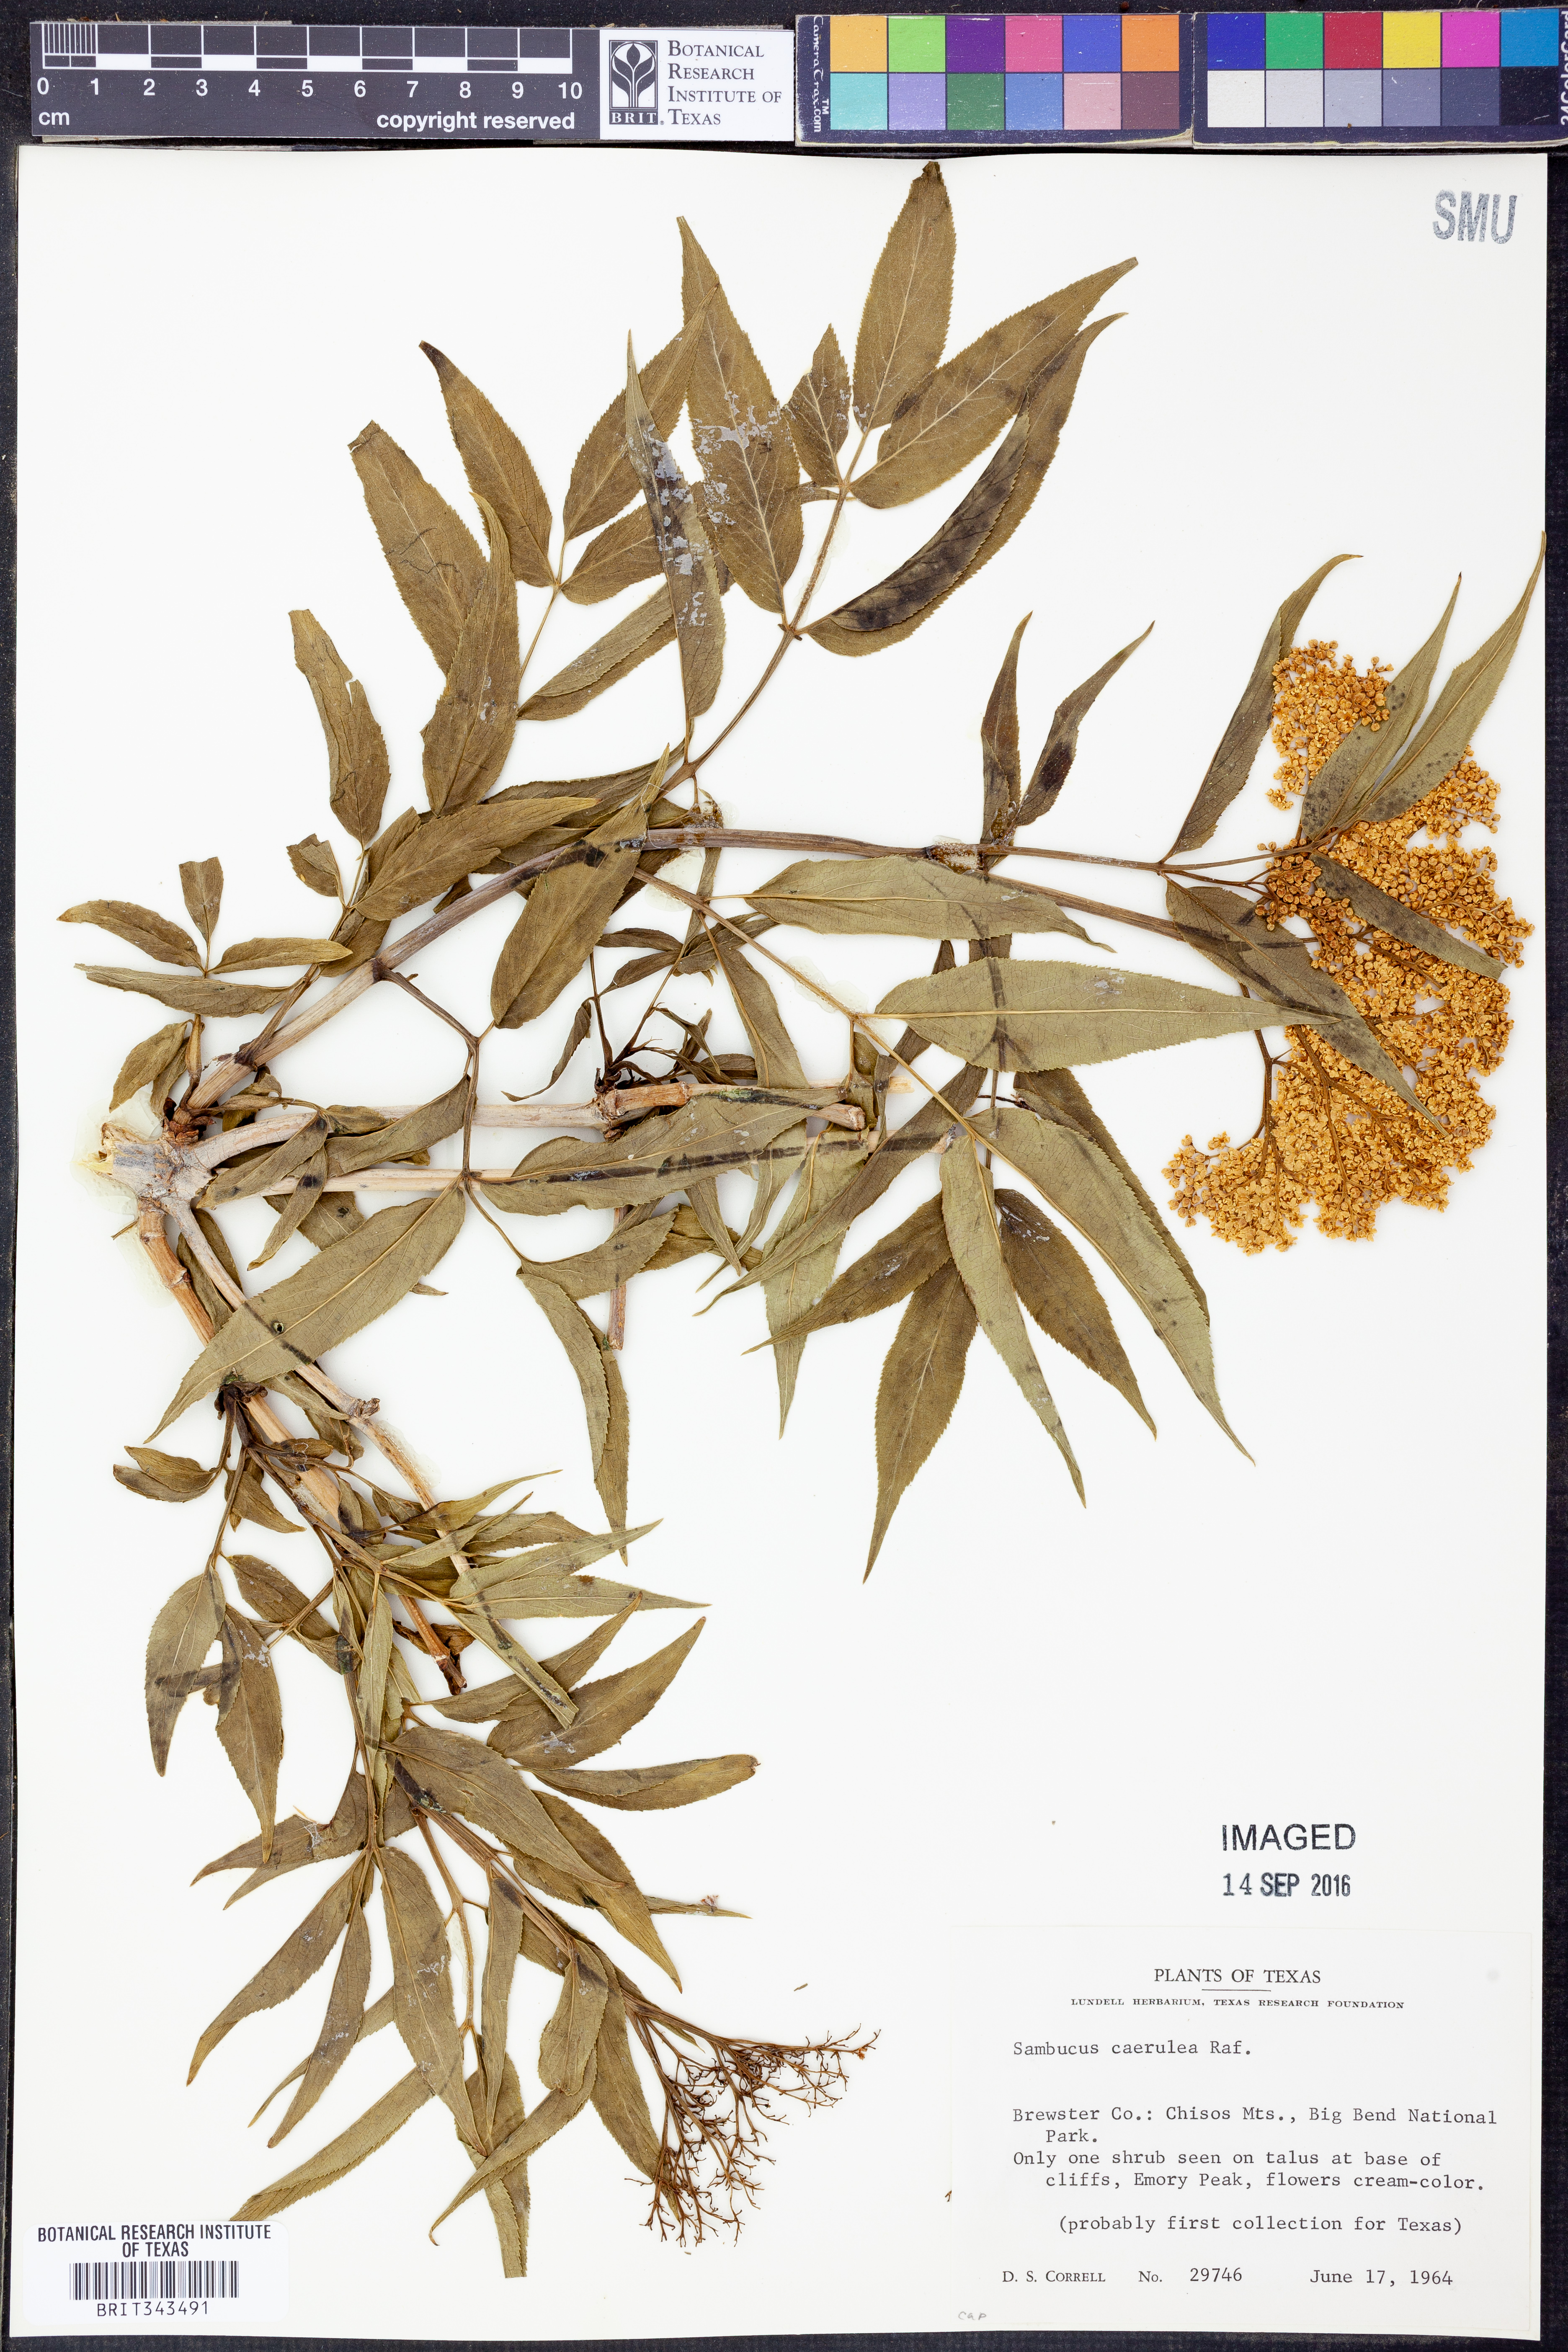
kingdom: Plantae
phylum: Tracheophyta
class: Magnoliopsida
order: Dipsacales
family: Viburnaceae
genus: Sambucus
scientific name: Sambucus cerulea
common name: Blue elder
